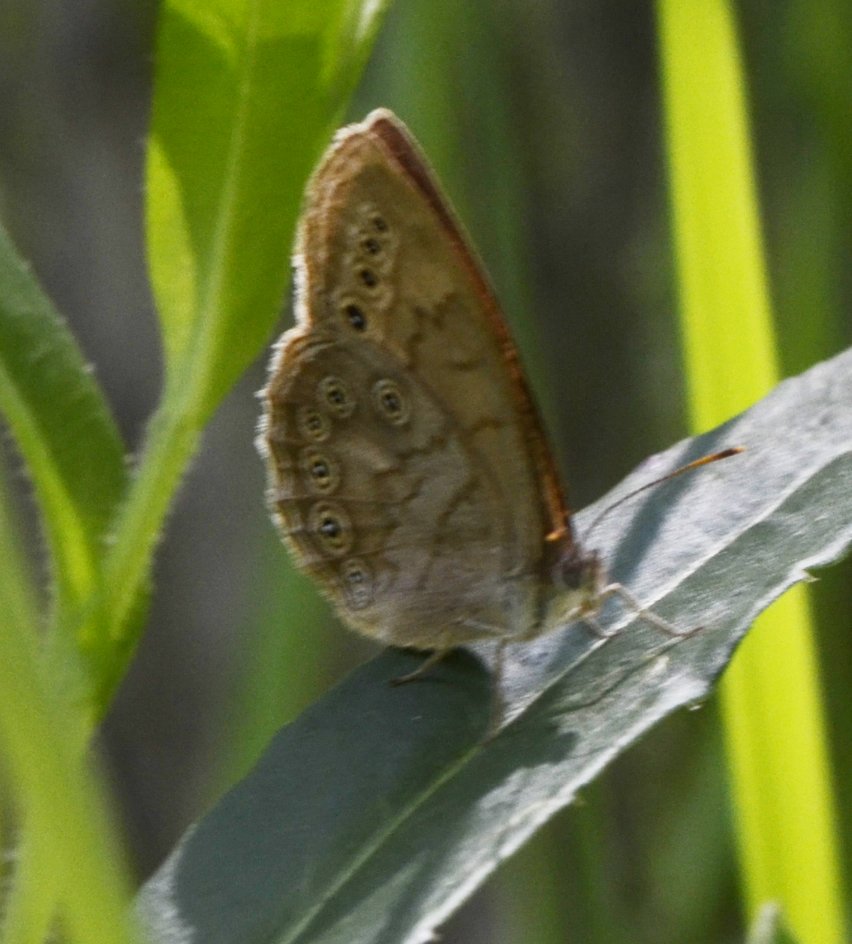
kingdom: Animalia
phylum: Arthropoda
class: Insecta
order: Lepidoptera
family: Nymphalidae
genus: Lethe
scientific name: Lethe eurydice
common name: Eyed Brown
